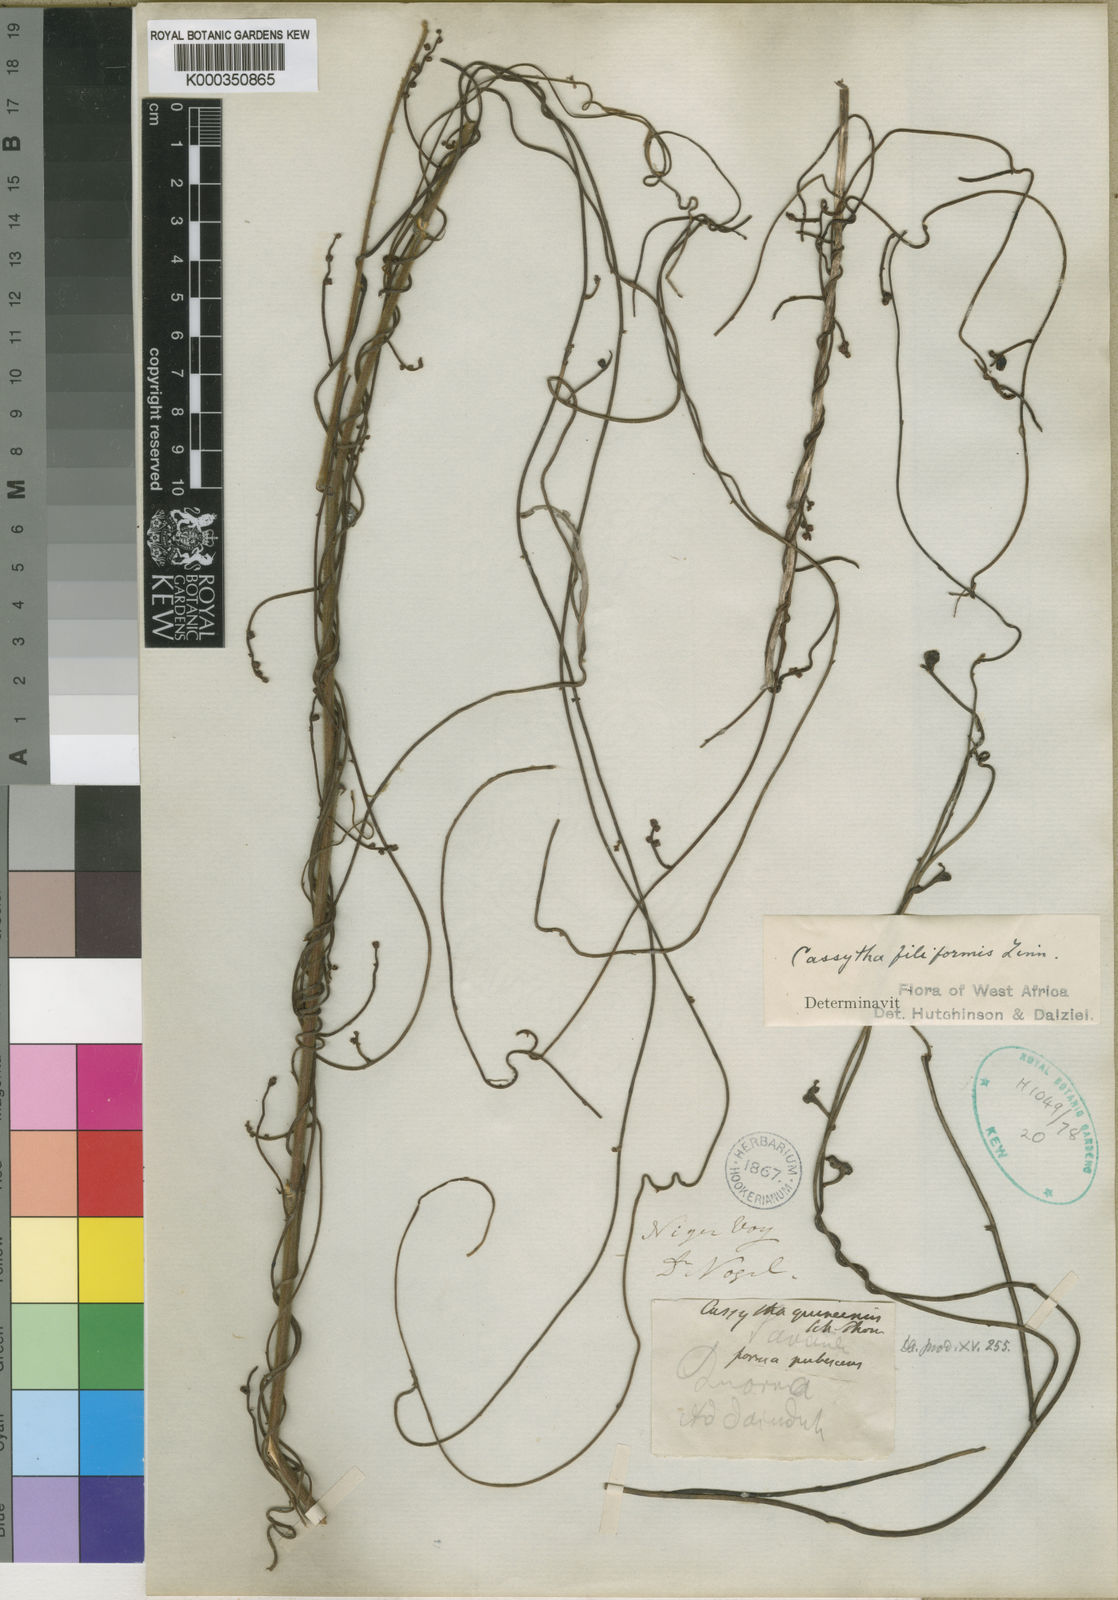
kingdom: Plantae
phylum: Tracheophyta
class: Magnoliopsida
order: Laurales
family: Lauraceae
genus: Cassytha
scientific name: Cassytha filiformis
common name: Dodder-laurel
